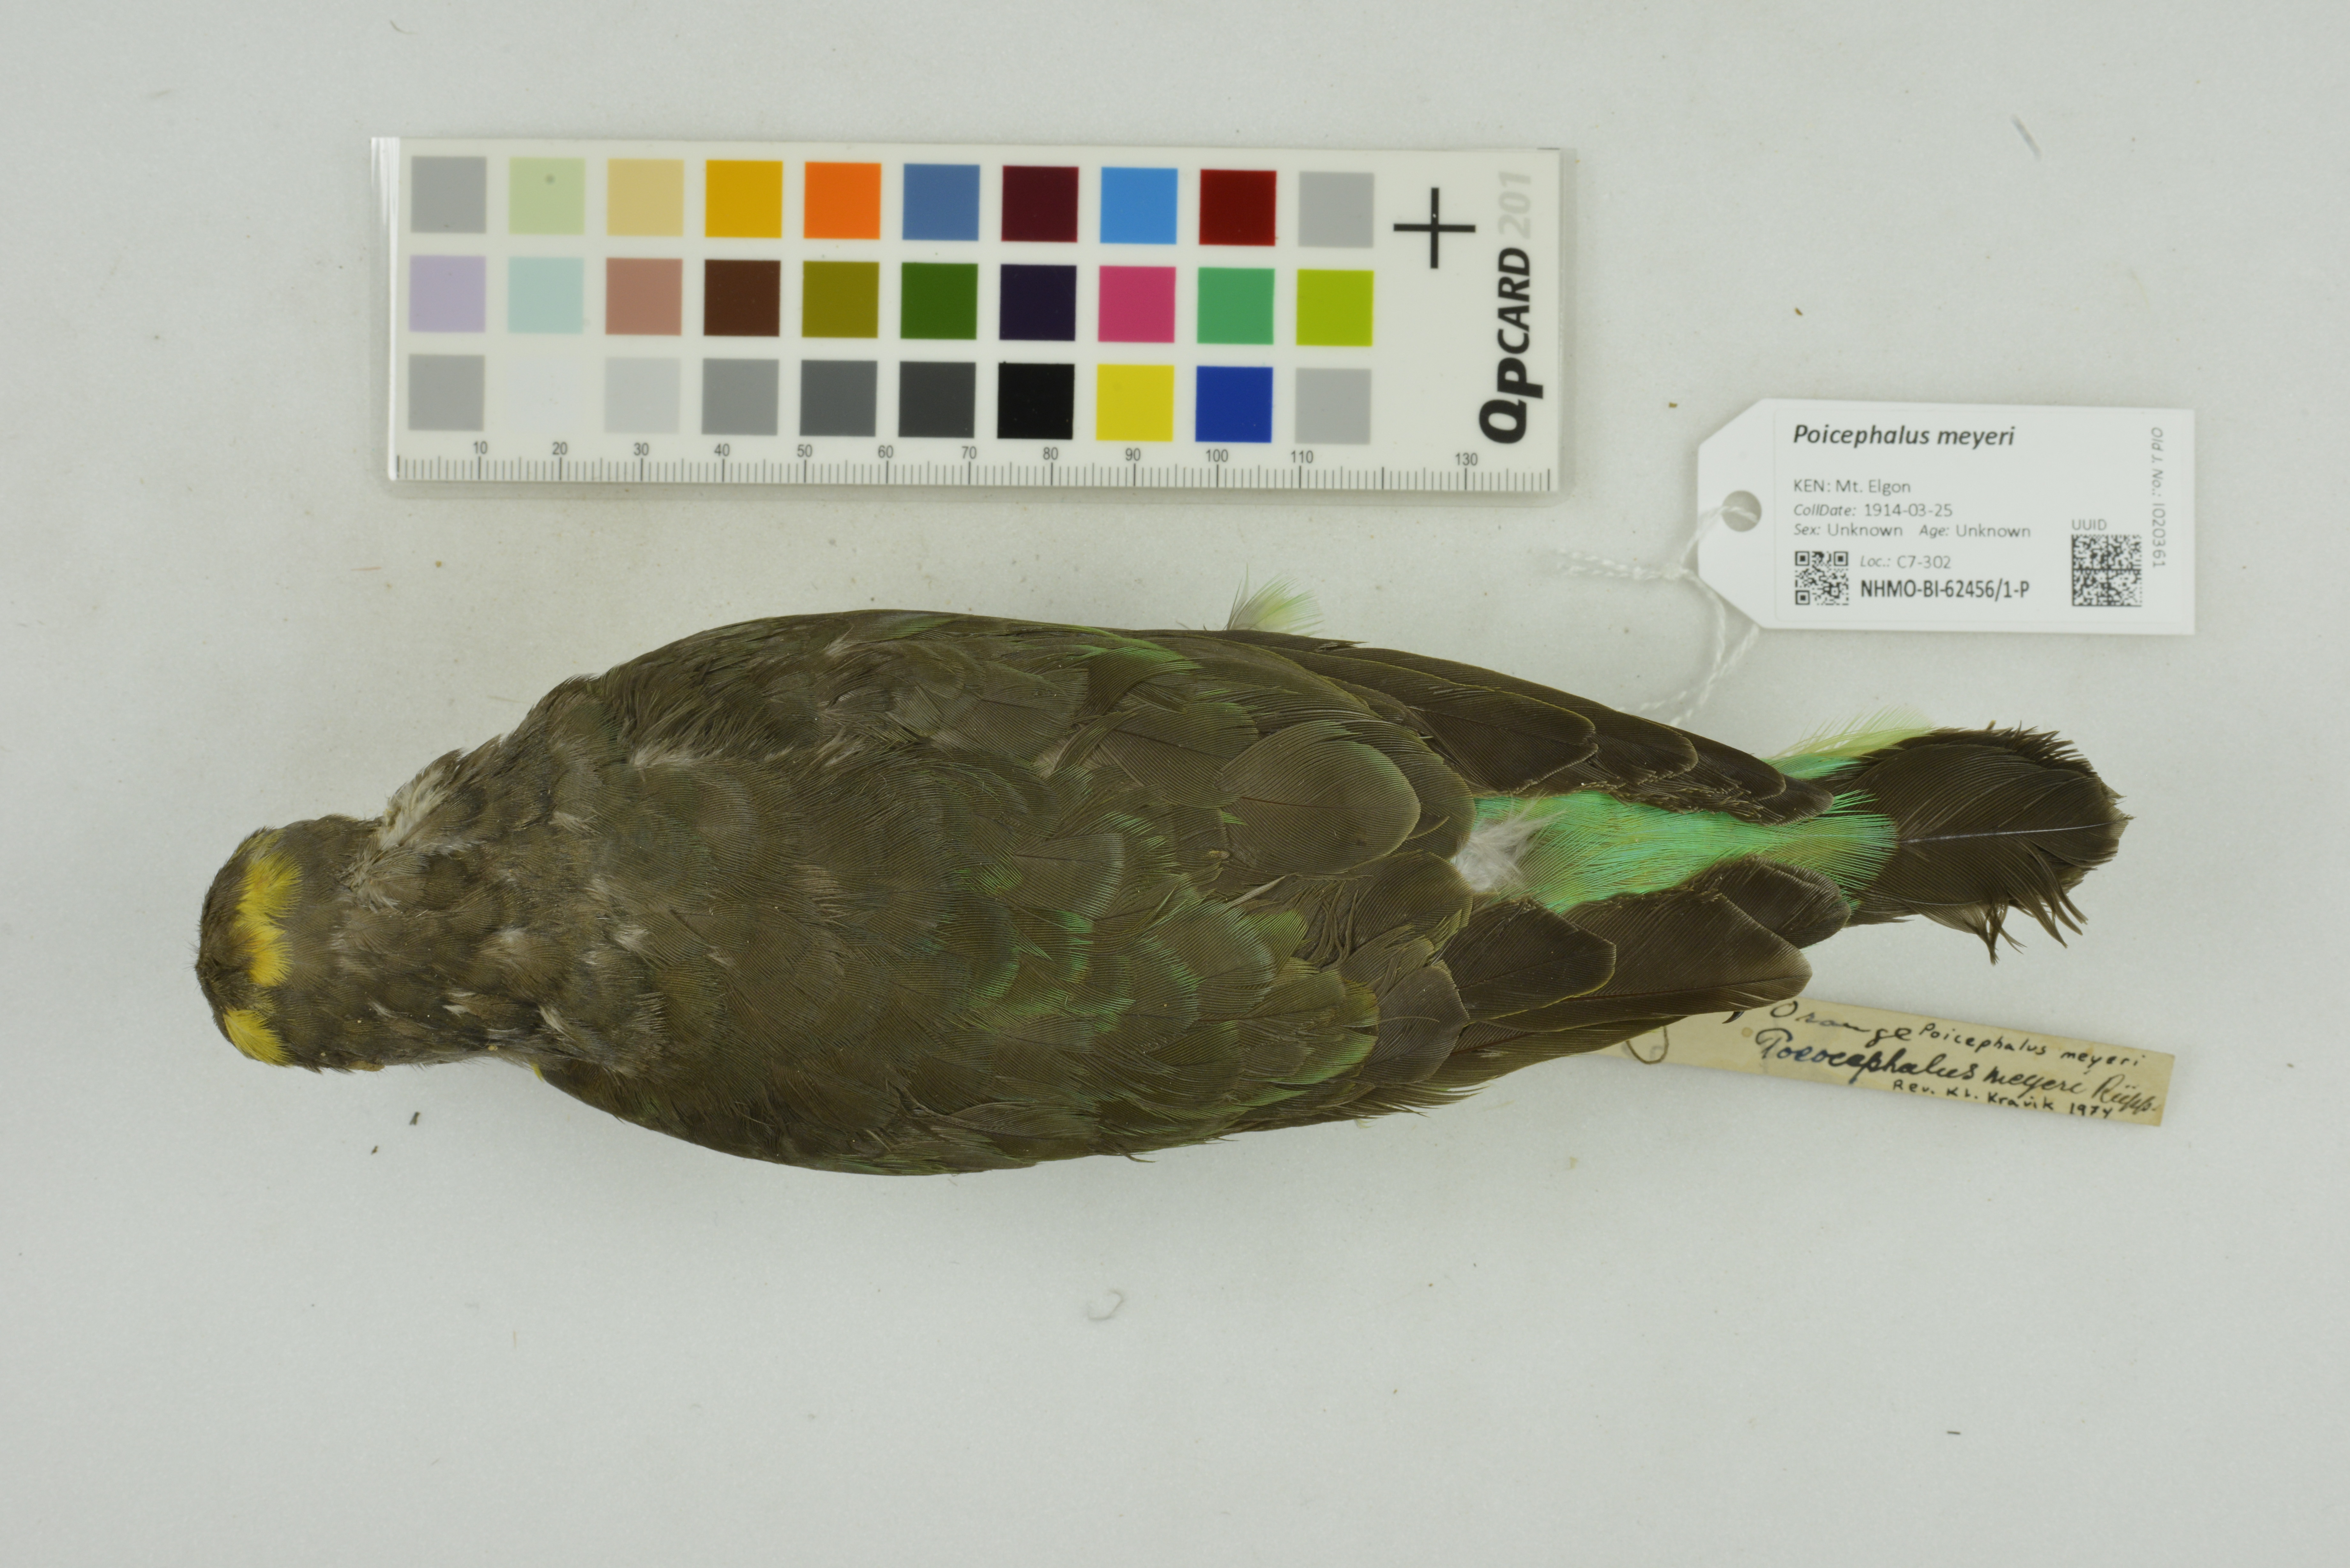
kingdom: Animalia
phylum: Chordata
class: Aves
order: Psittaciformes
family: Psittacidae
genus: Poicephalus
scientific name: Poicephalus meyeri
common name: Meyer's parrot
